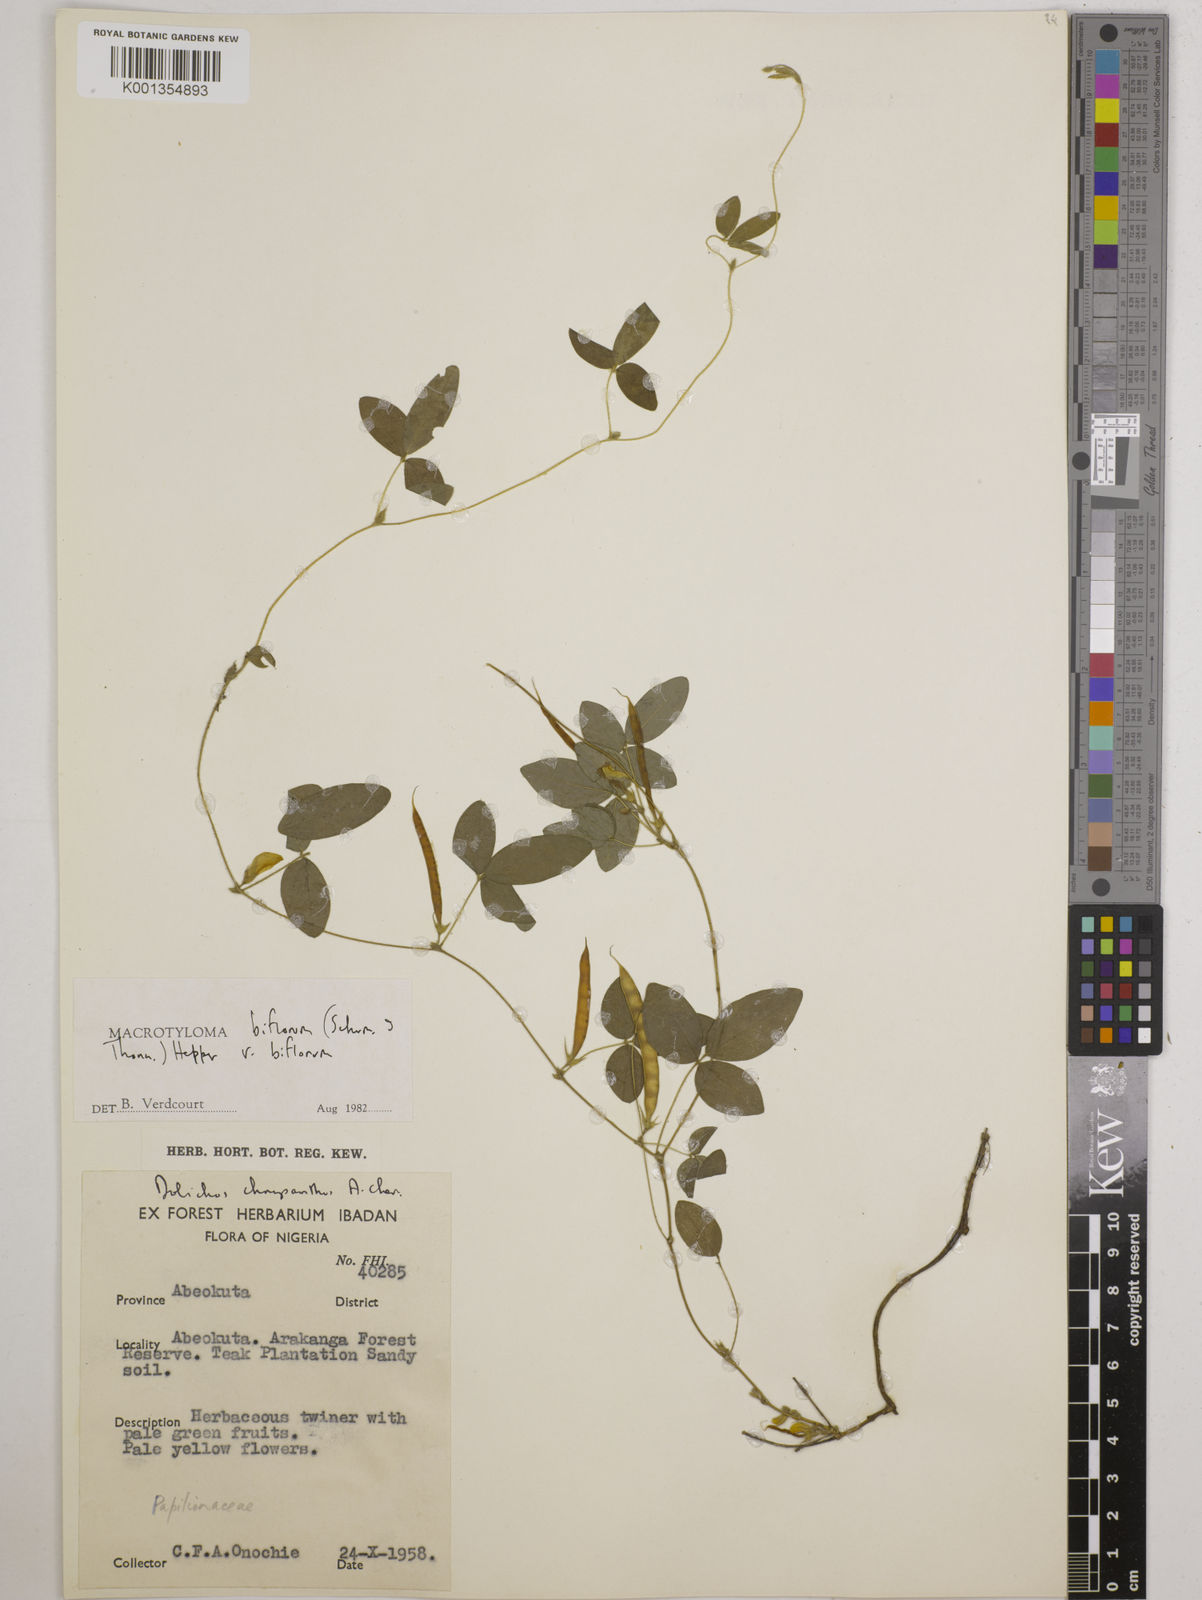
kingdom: Plantae
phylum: Tracheophyta
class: Magnoliopsida
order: Fabales
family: Fabaceae
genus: Macrotyloma
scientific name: Macrotyloma biflorum
